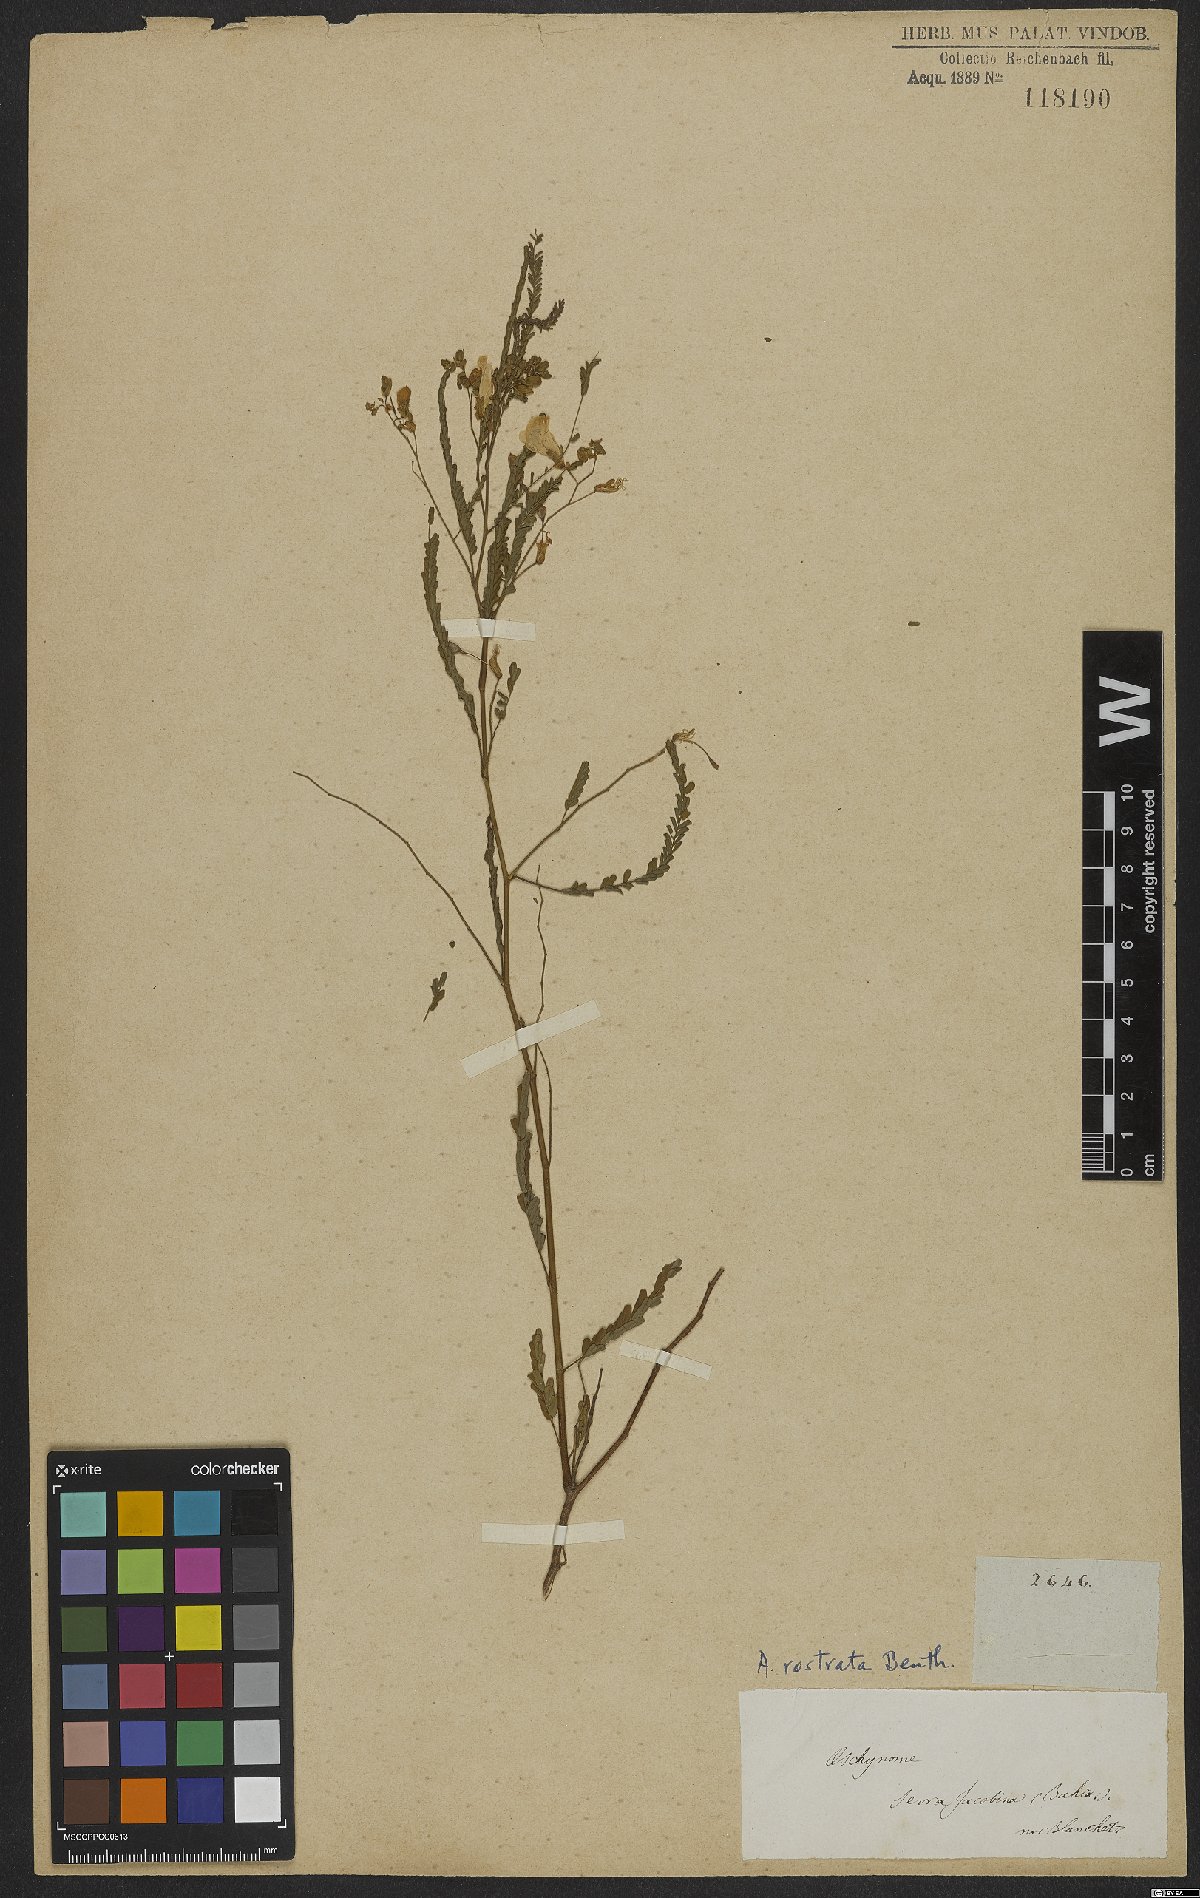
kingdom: Plantae
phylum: Tracheophyta
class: Magnoliopsida
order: Fabales
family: Fabaceae
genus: Aeschynomene
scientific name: Aeschynomene rostrata
